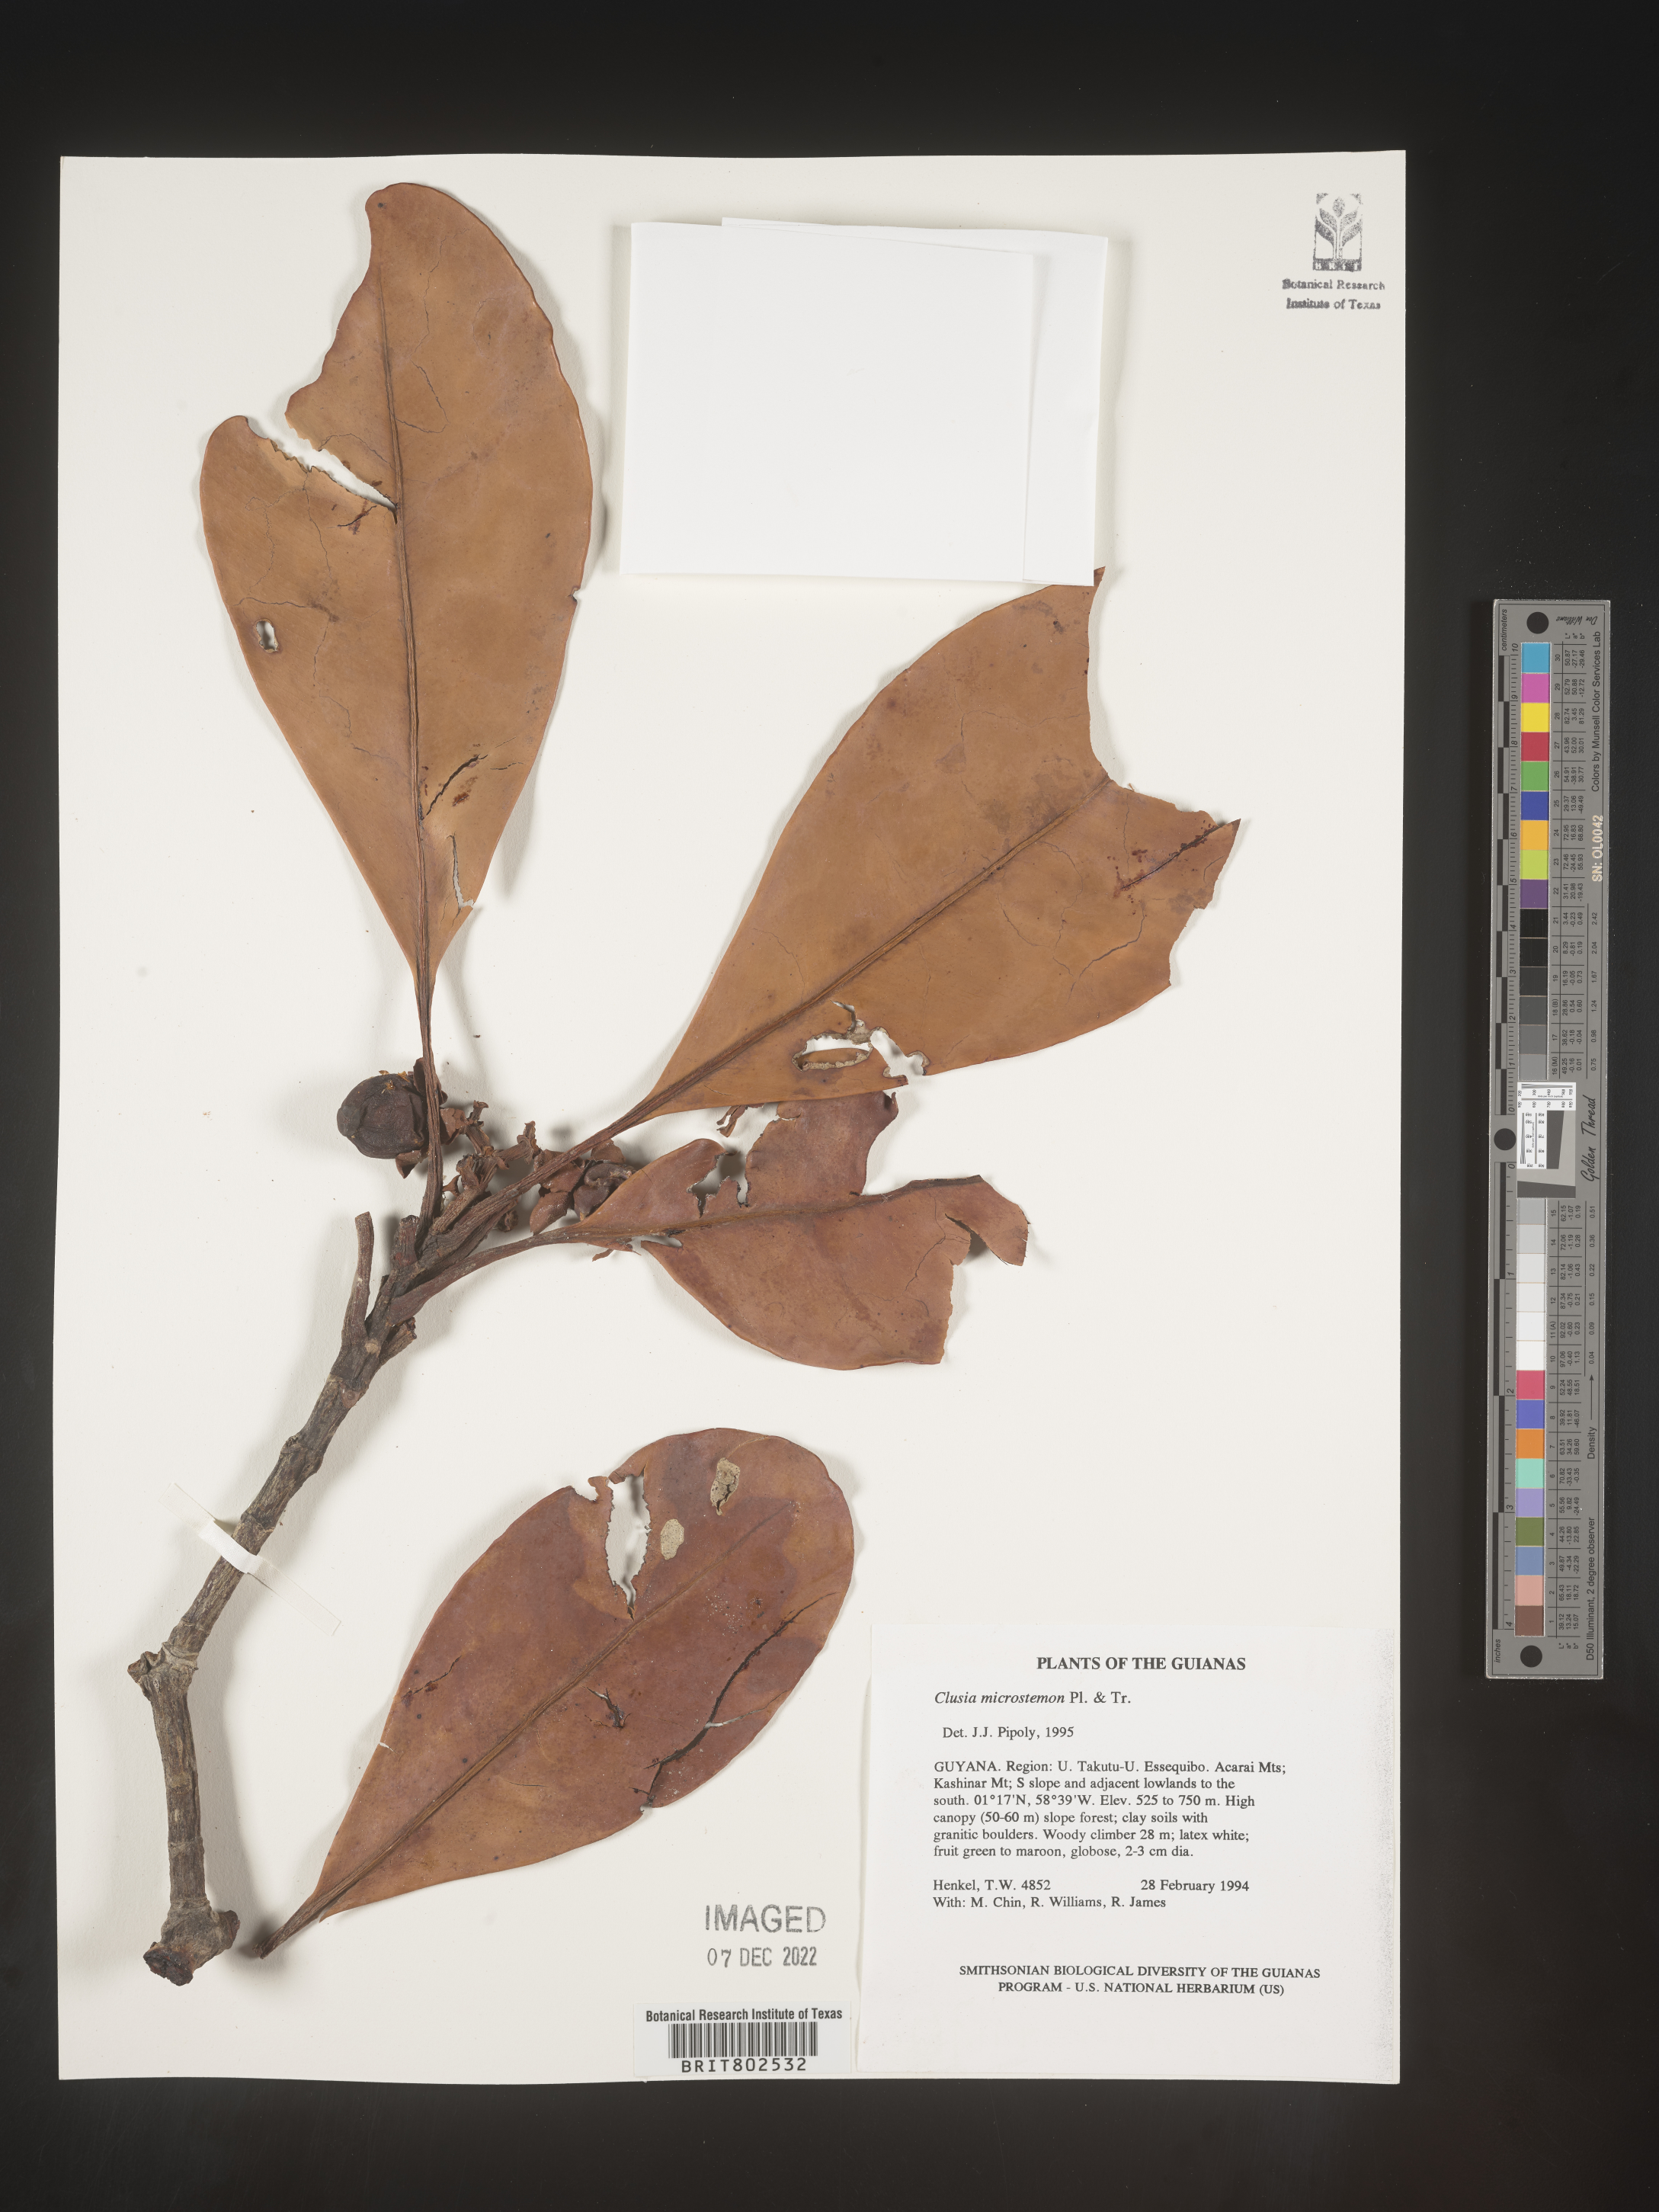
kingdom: Plantae
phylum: Tracheophyta
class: Magnoliopsida
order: Malpighiales
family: Clusiaceae
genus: Clusia
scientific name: Clusia microstemon
